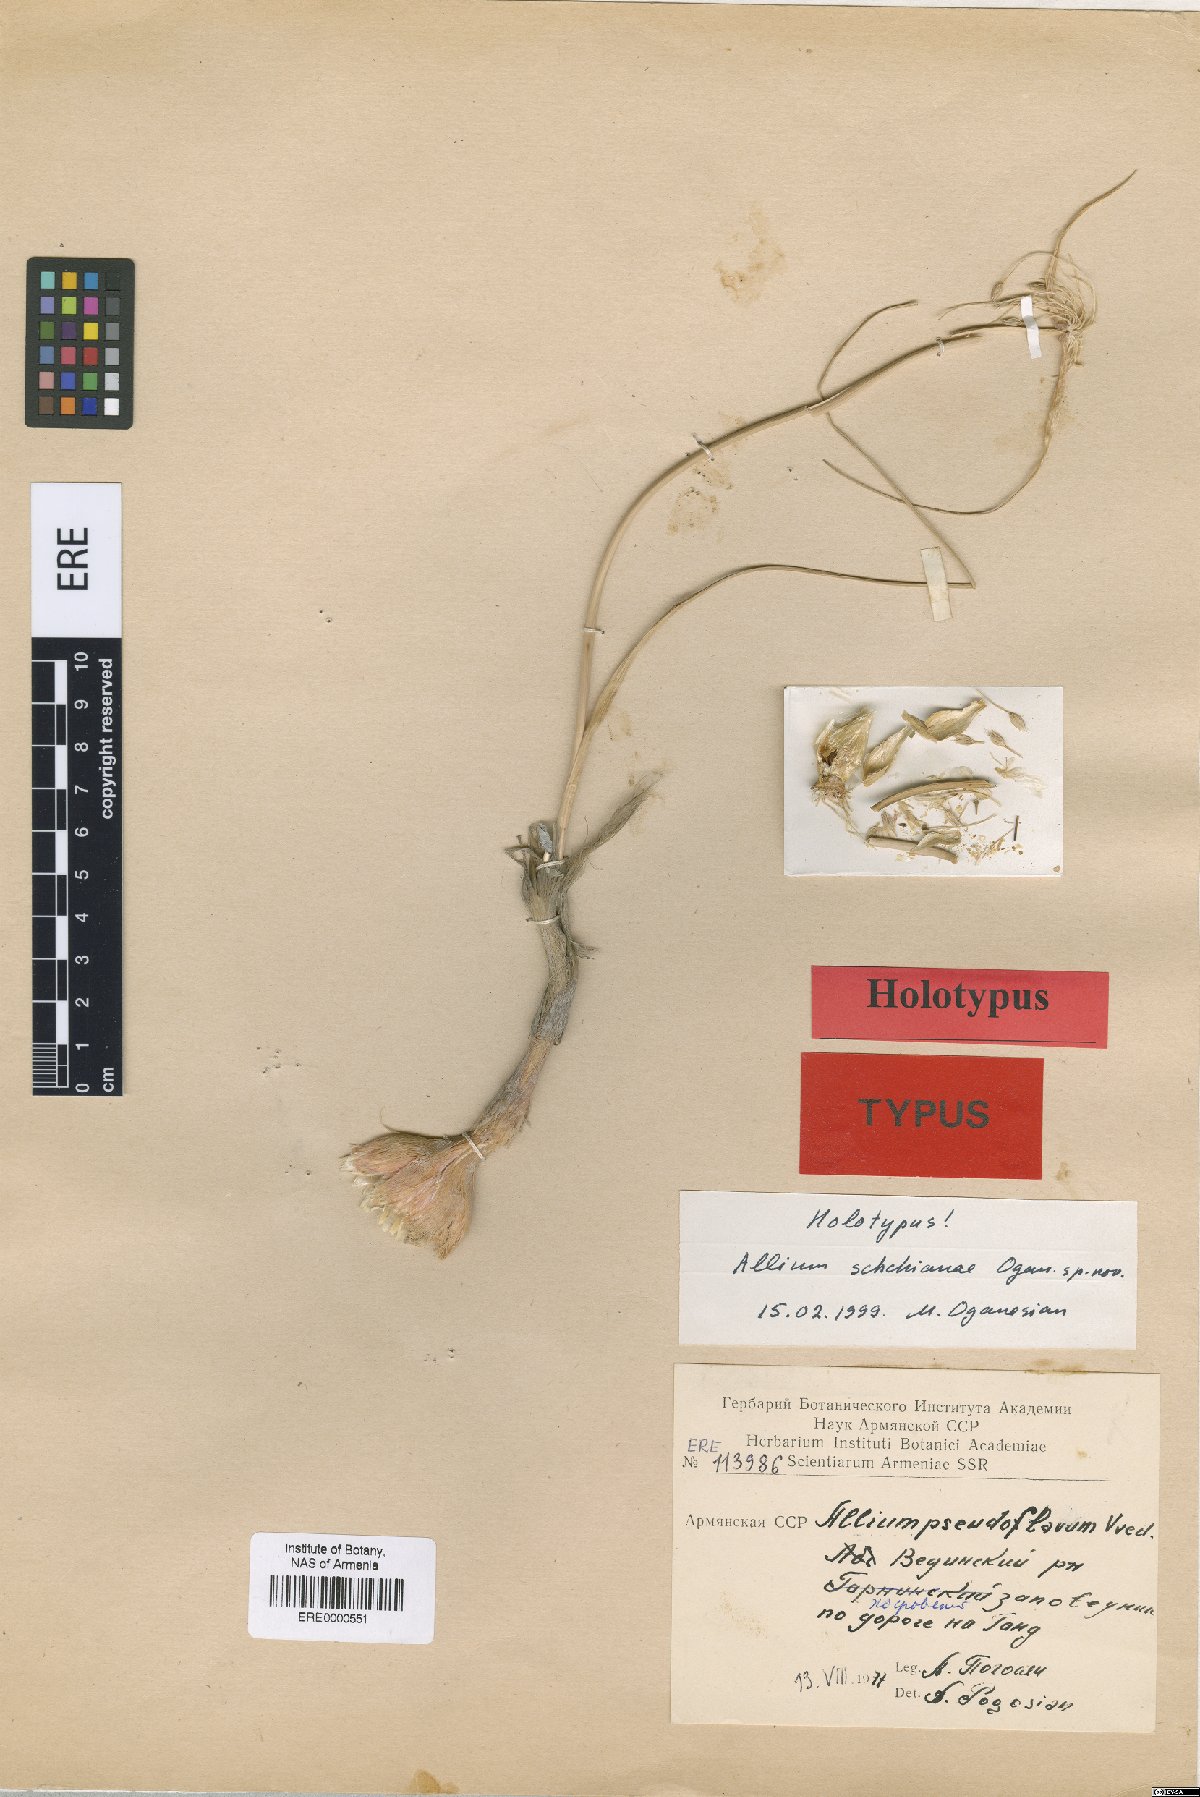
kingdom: Plantae
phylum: Tracheophyta
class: Liliopsida
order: Asparagales
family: Amaryllidaceae
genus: Allium
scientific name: Allium pseudoflavum
